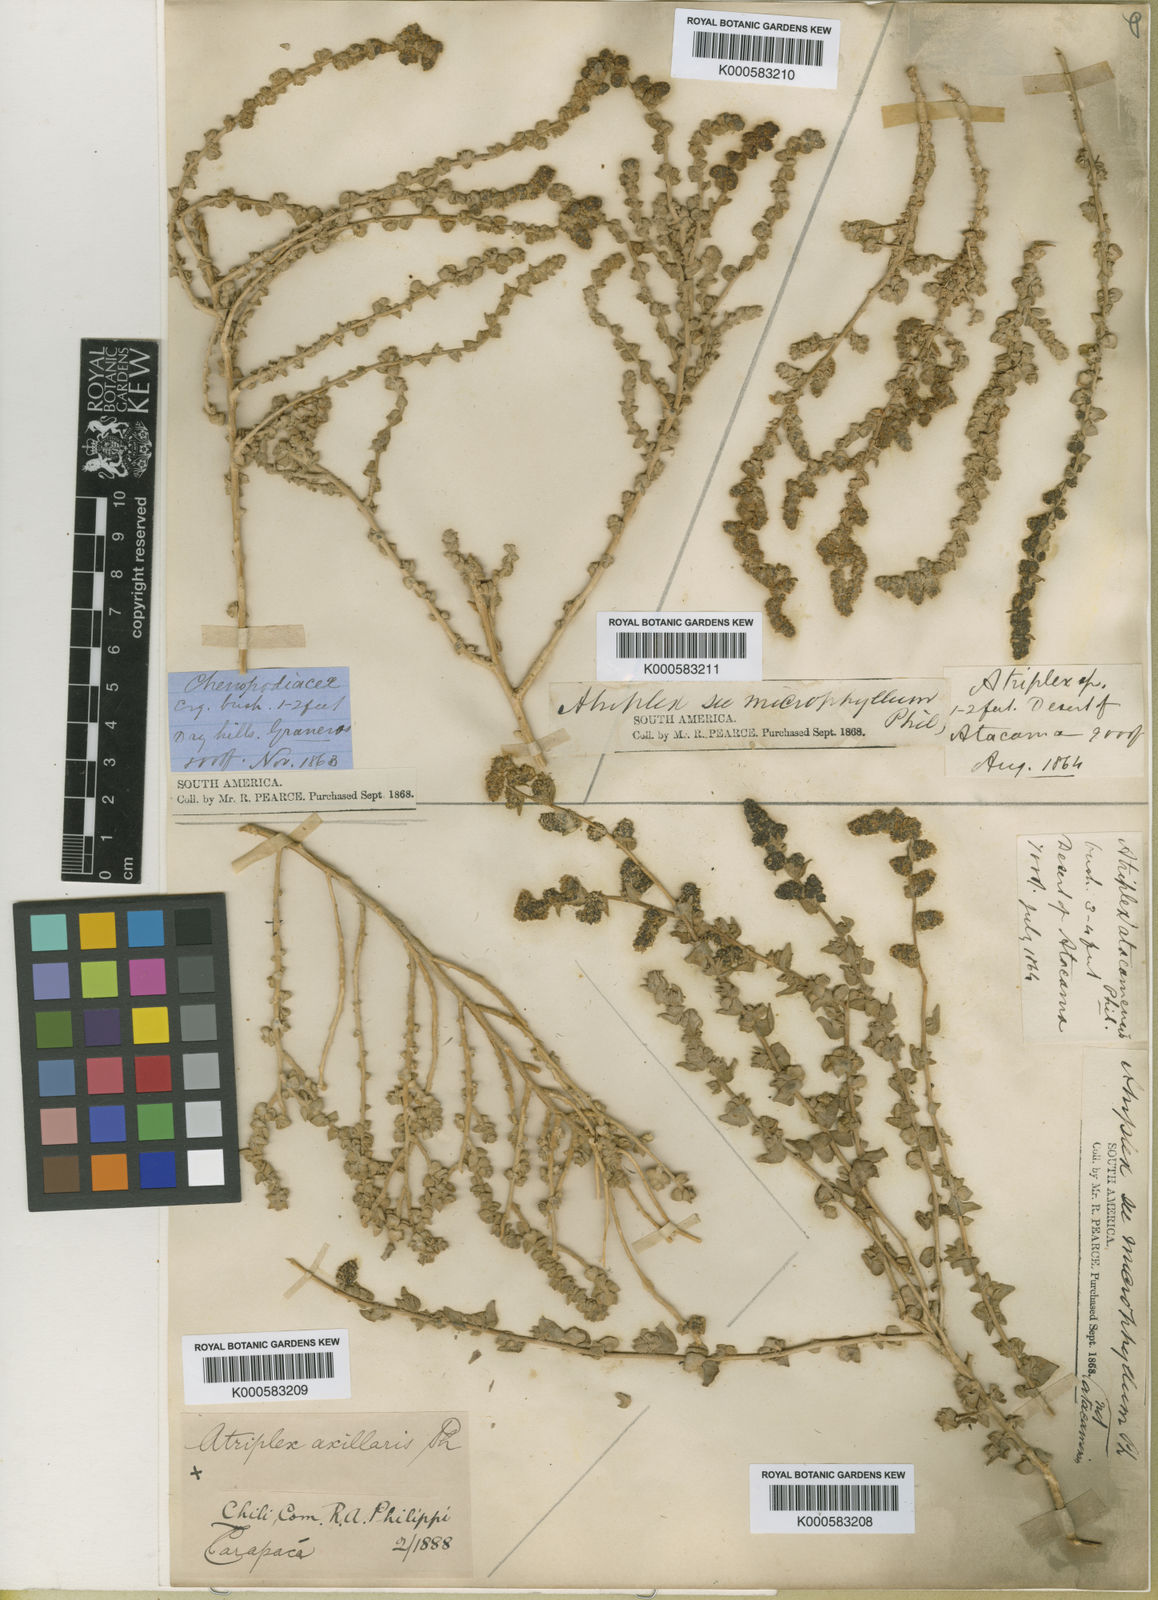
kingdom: Plantae
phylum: Tracheophyta
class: Magnoliopsida
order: Caryophyllales
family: Amaranthaceae
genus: Atriplex
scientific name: Atriplex imbricata
